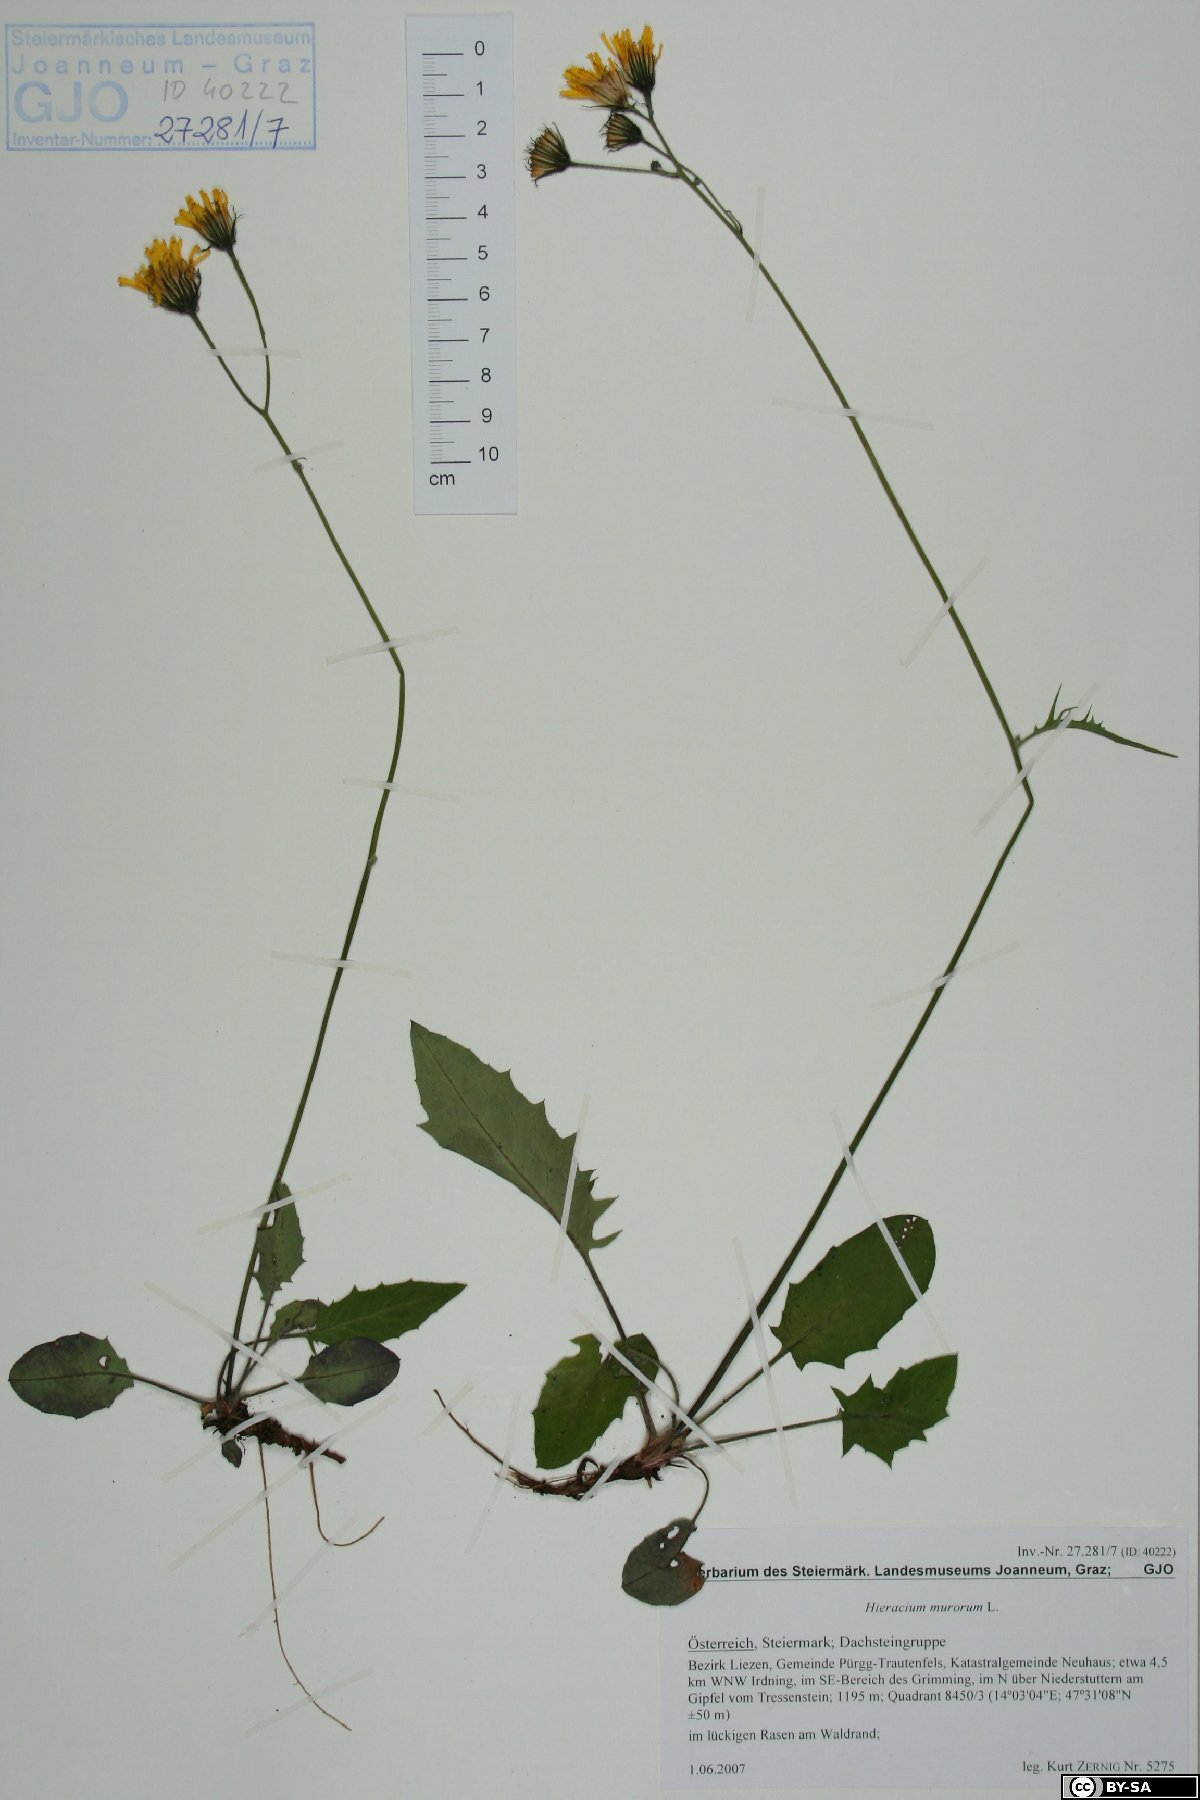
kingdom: Plantae
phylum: Tracheophyta
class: Magnoliopsida
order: Asterales
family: Asteraceae
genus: Hieracium
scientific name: Hieracium murorum
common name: Wall hawkweed
